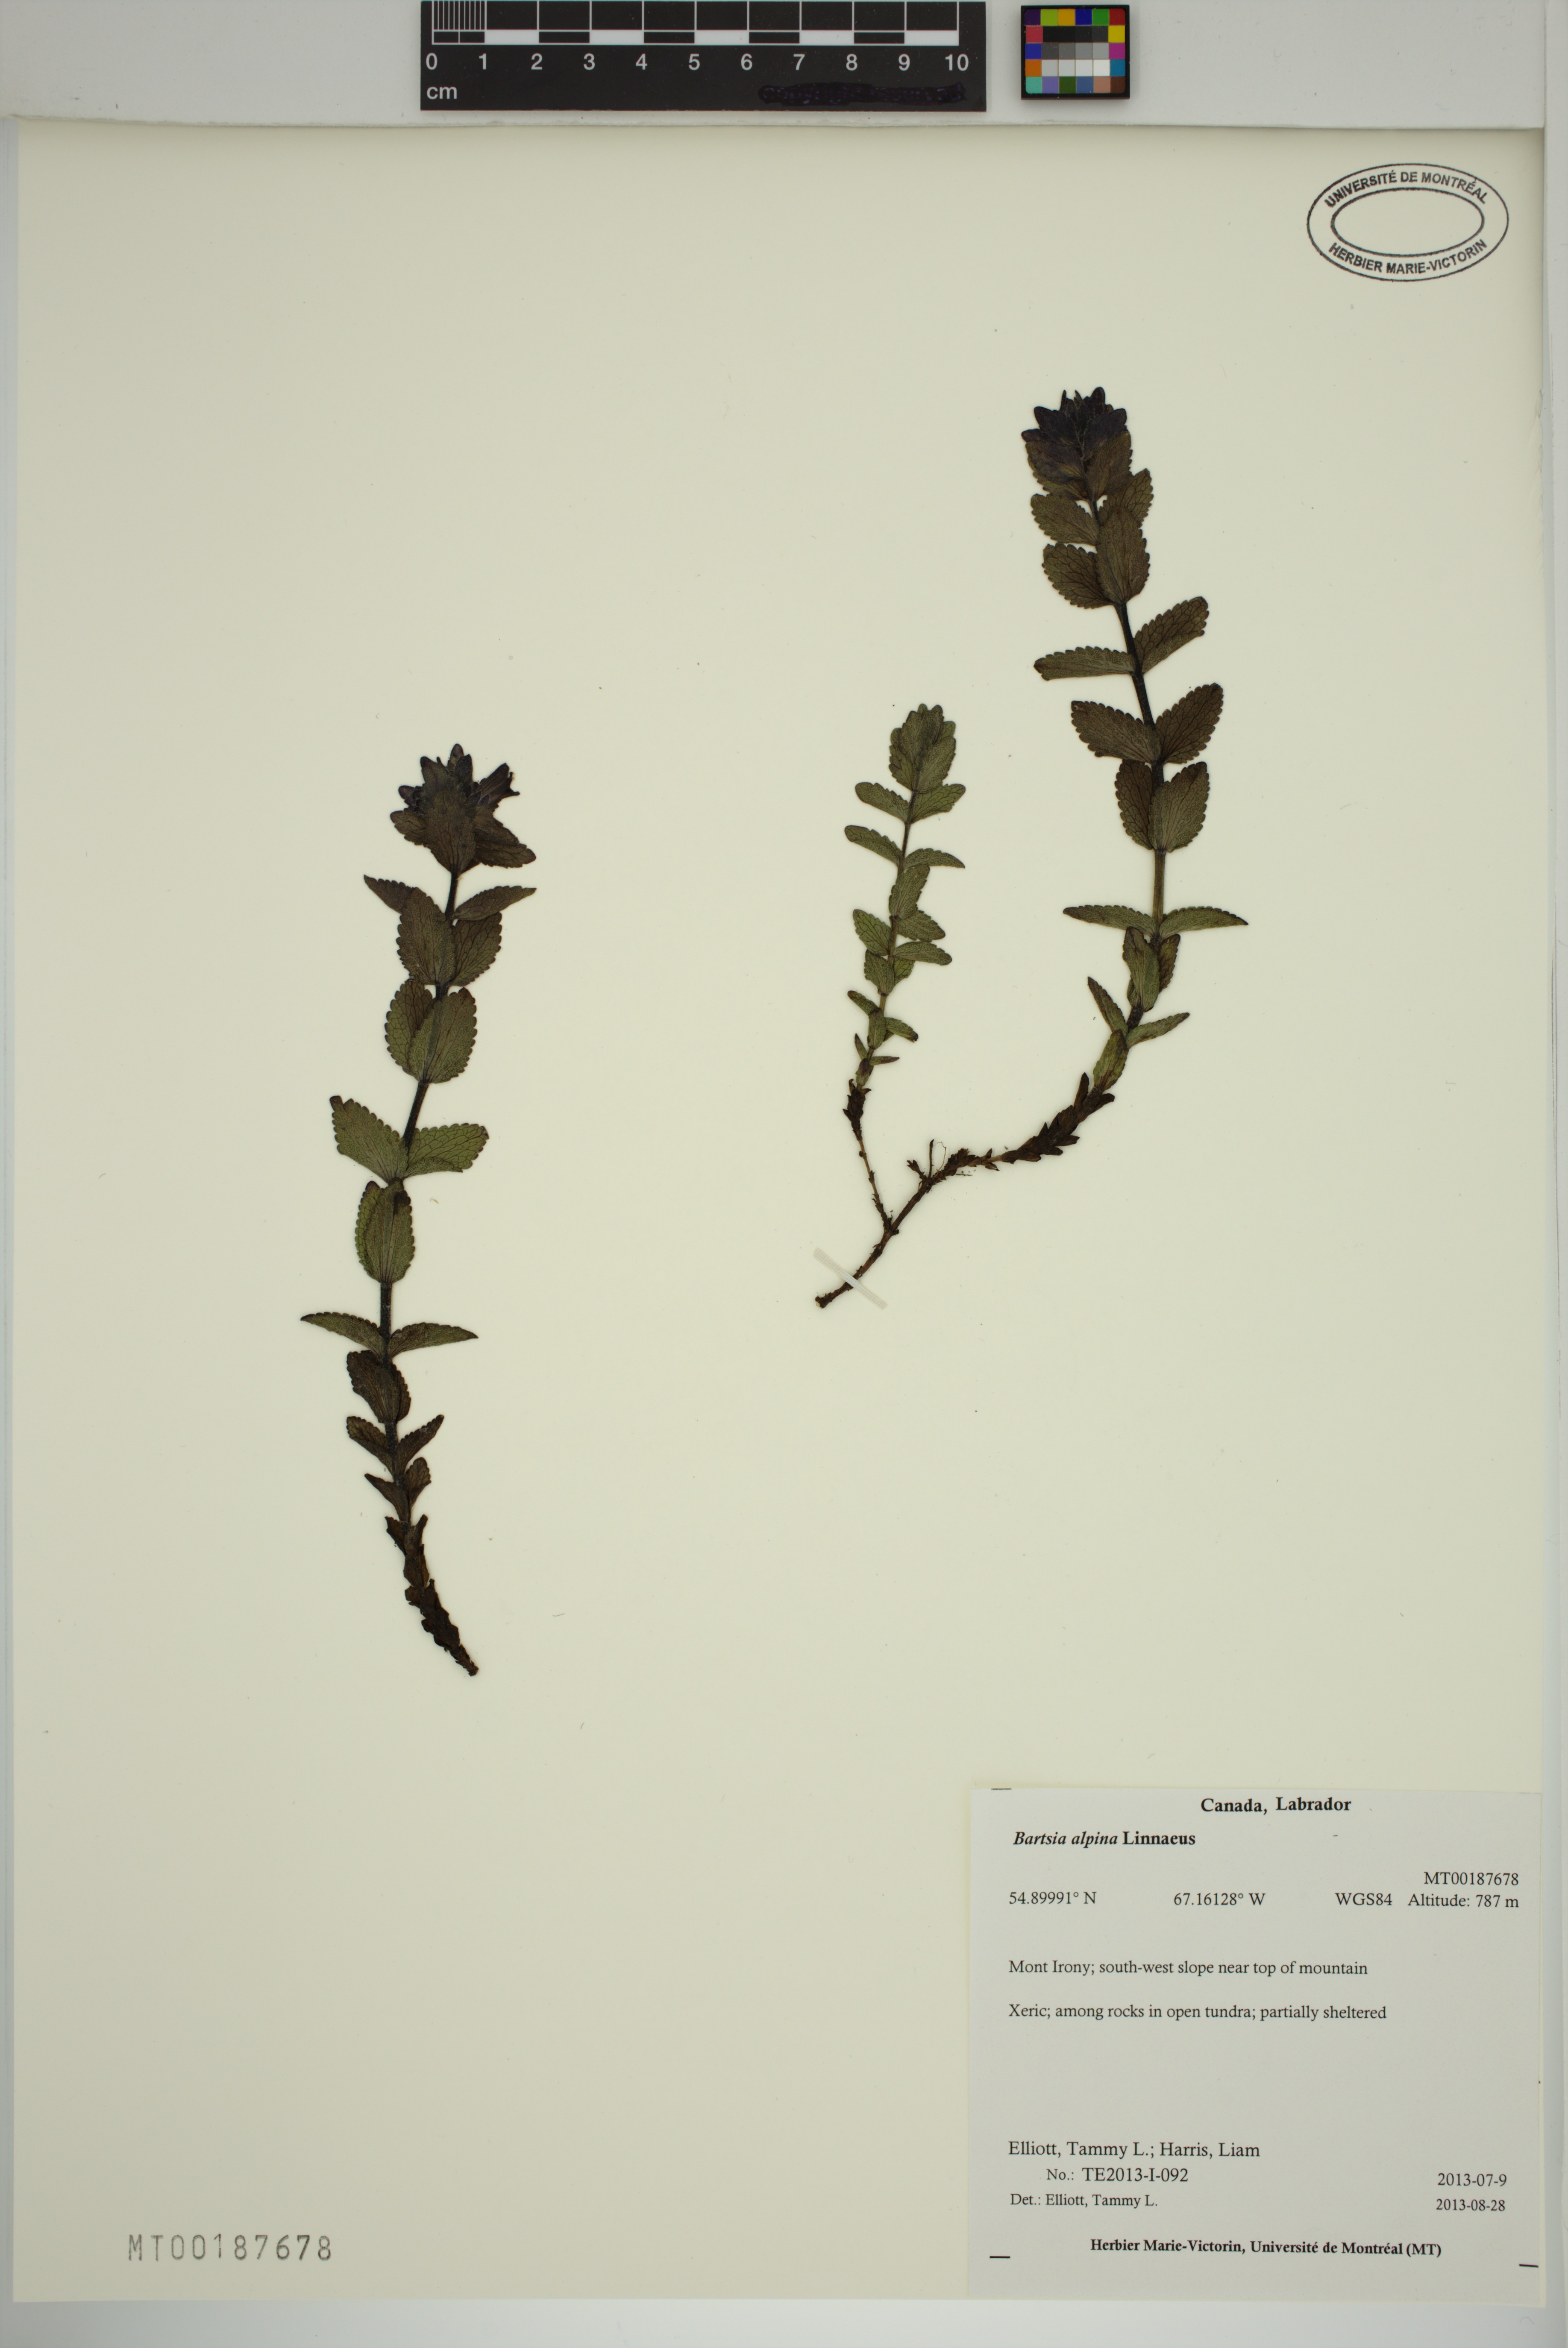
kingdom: Plantae
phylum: Tracheophyta
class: Magnoliopsida
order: Lamiales
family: Orobanchaceae
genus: Bartsia
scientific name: Bartsia alpina
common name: Alpine bartsia
